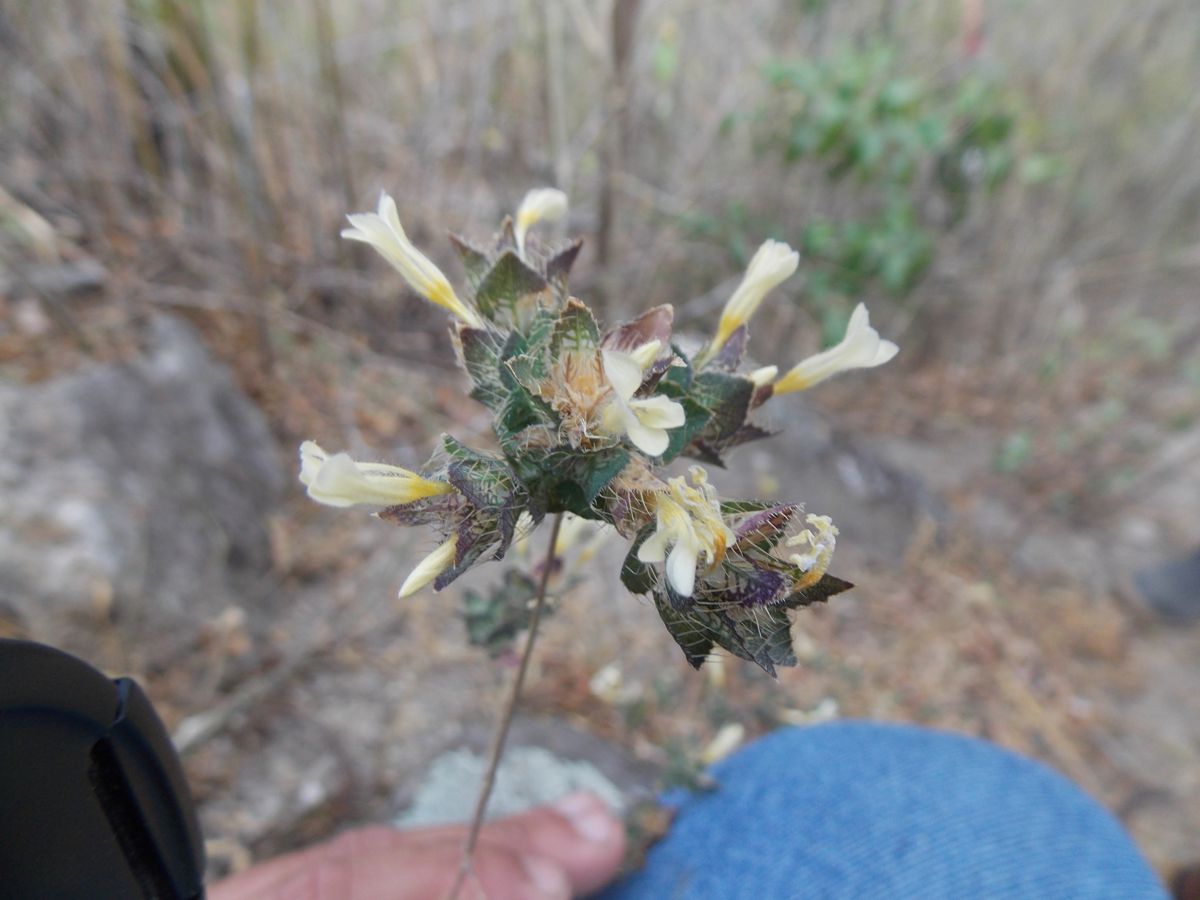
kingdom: Plantae
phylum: Tracheophyta
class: Magnoliopsida
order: Ericales
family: Polemoniaceae
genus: Loeselia
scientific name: Loeselia ciliata
